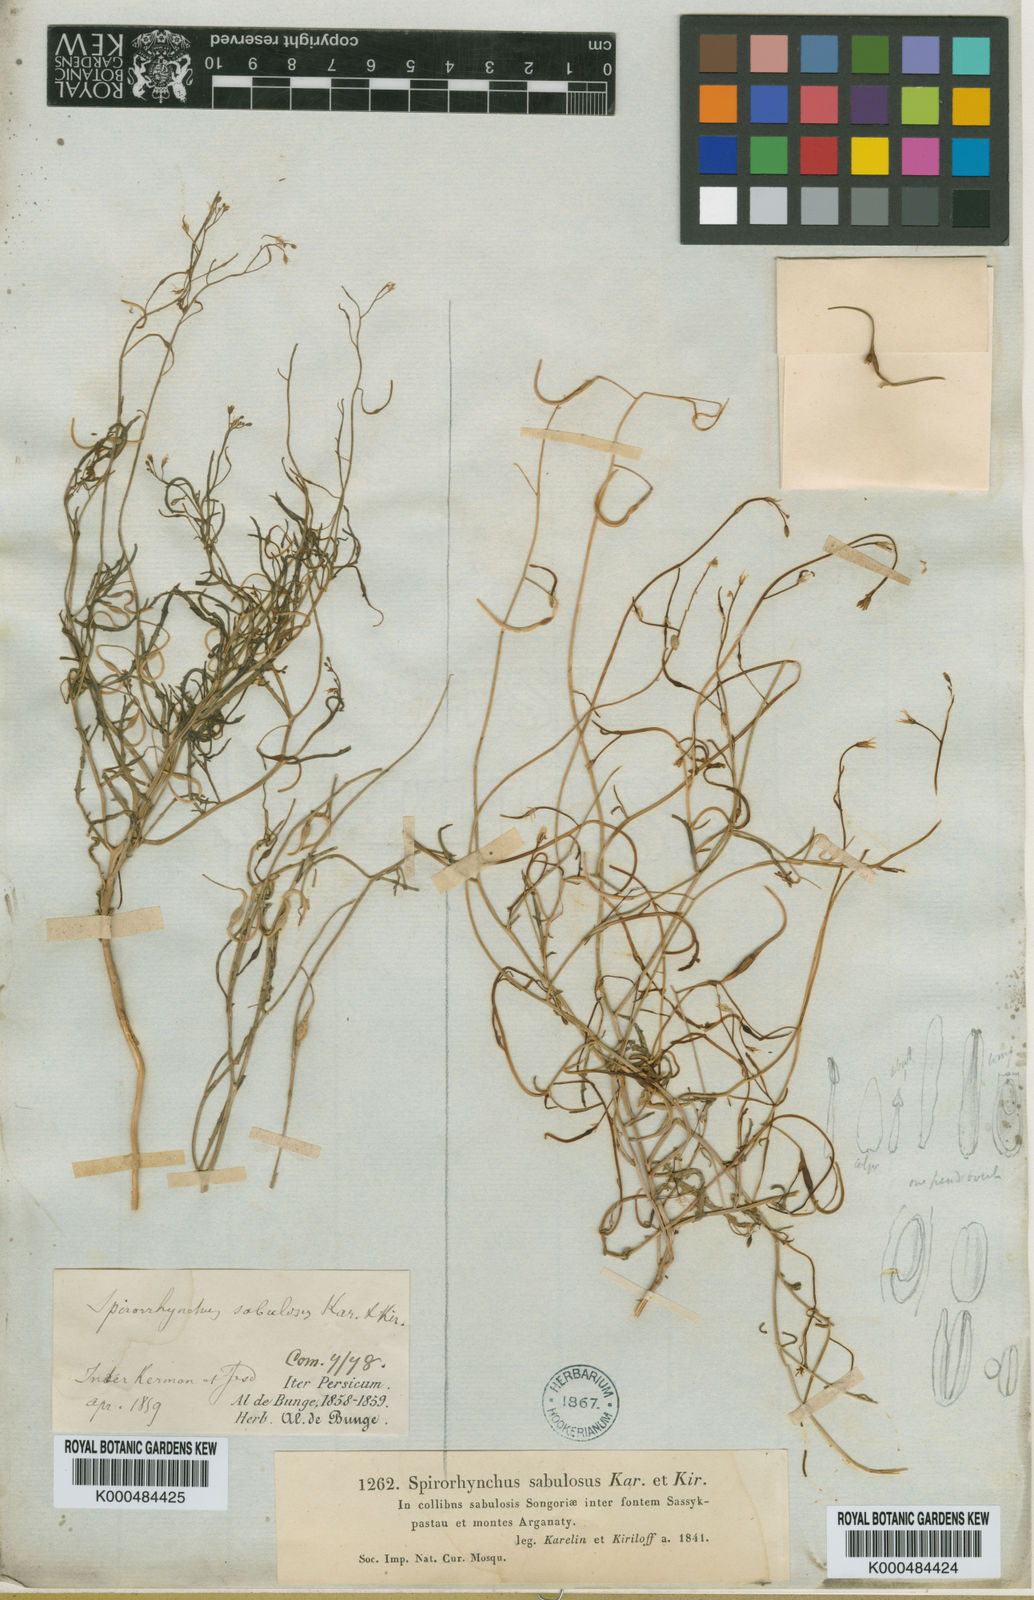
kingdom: Plantae
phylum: Tracheophyta
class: Magnoliopsida
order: Brassicales
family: Brassicaceae
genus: Goldbachia
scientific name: Goldbachia sabulosa
